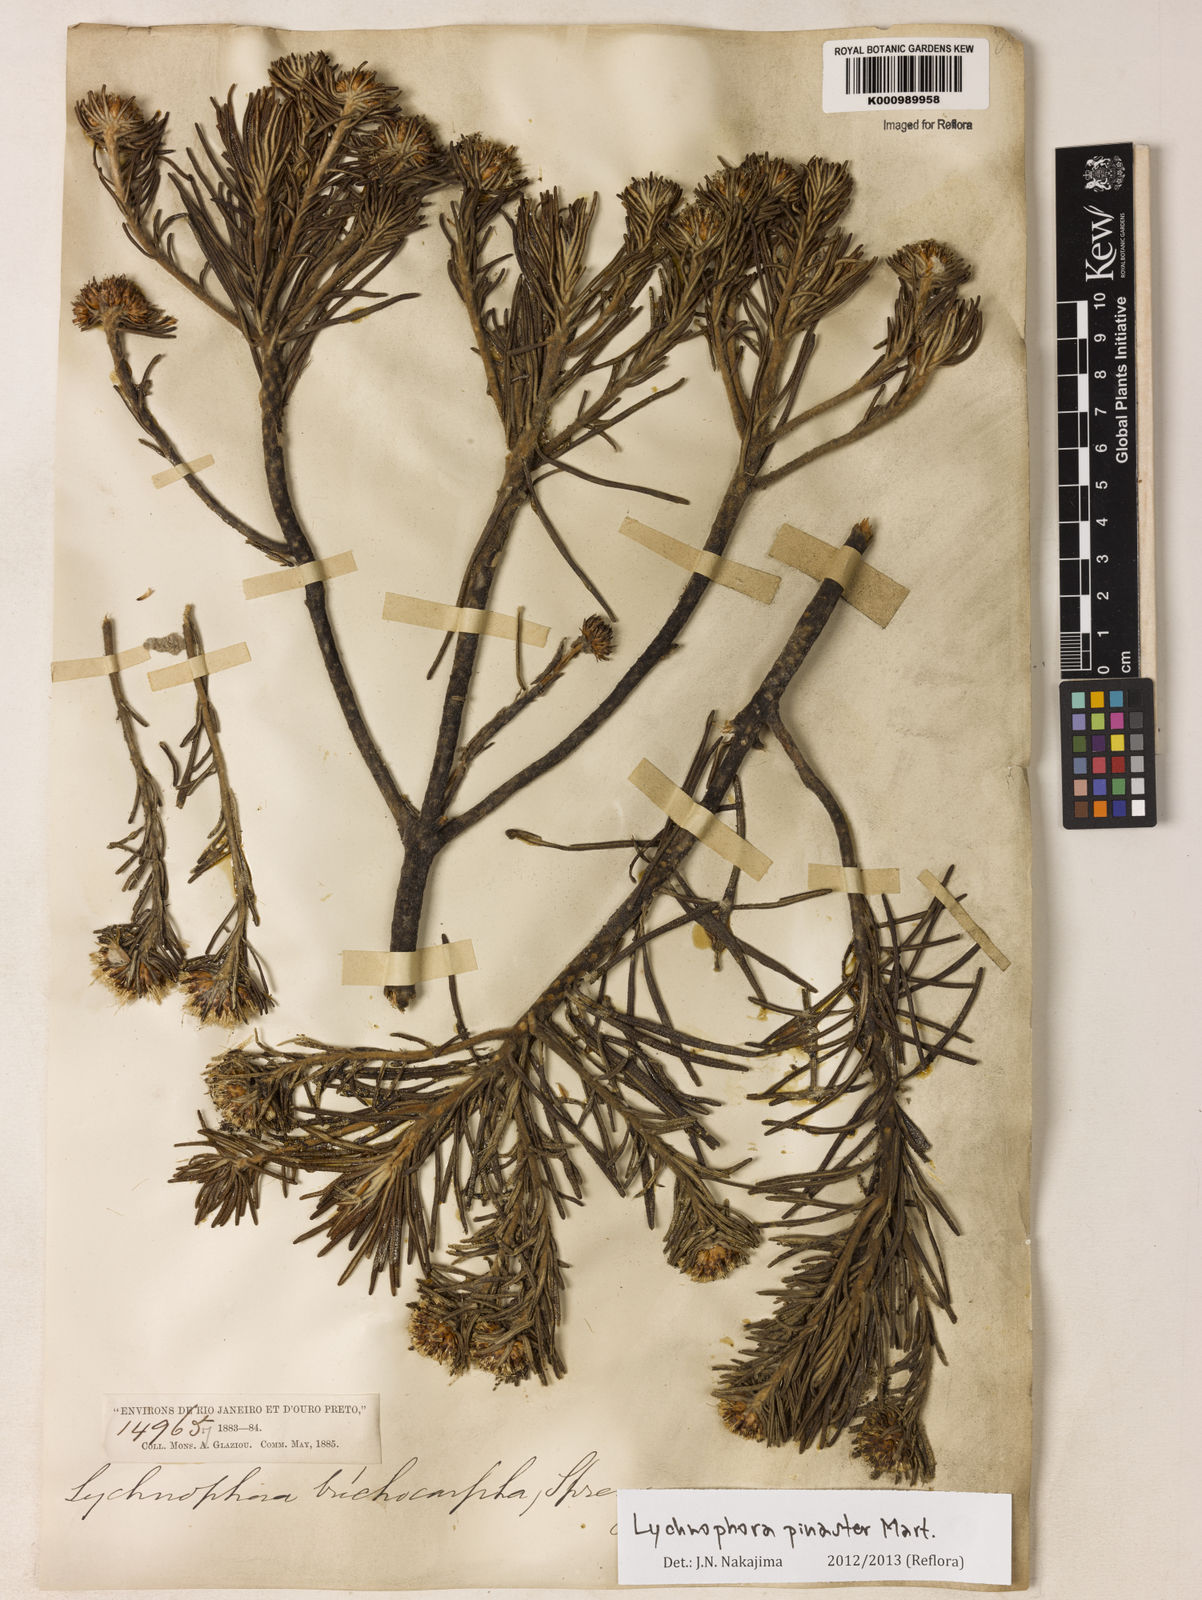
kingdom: Plantae
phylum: Tracheophyta
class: Magnoliopsida
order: Asterales
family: Asteraceae
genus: Lychnophora
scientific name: Lychnophora pinaster
